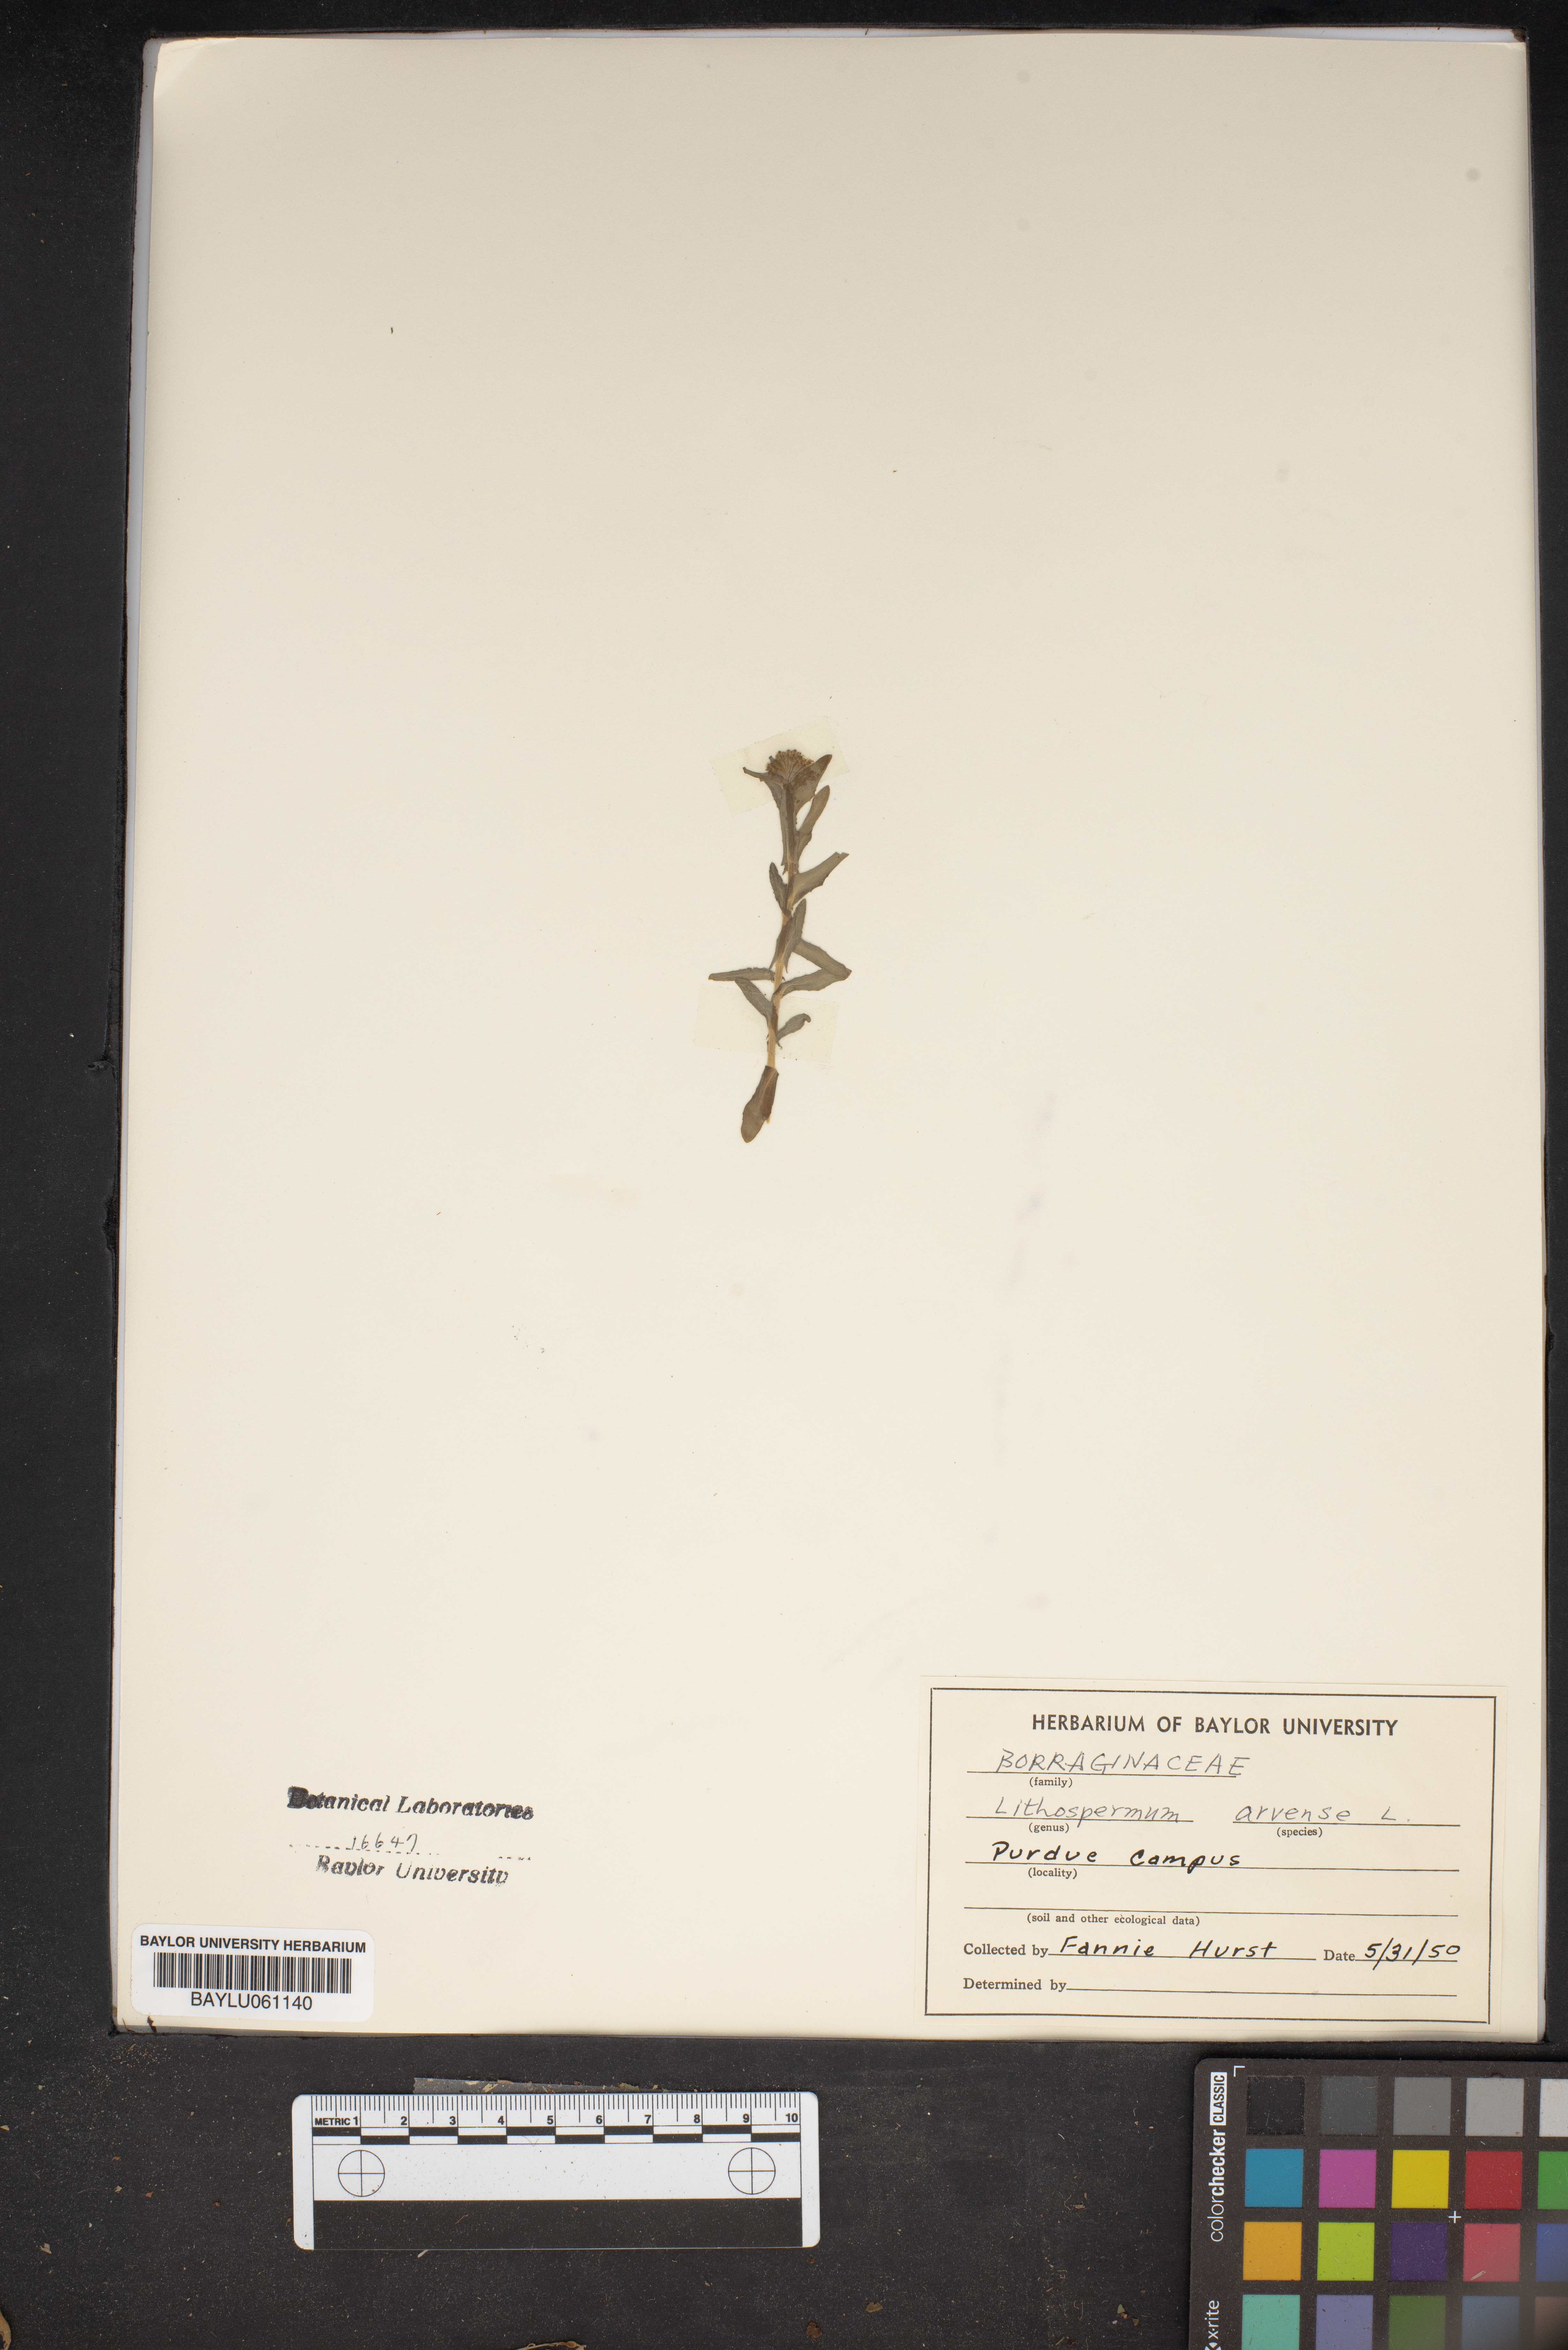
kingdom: Plantae
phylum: Tracheophyta
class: Magnoliopsida
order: Boraginales
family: Boraginaceae
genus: Lithospermum
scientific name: Lithospermum erythrorhizon
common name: Purple gromwell
